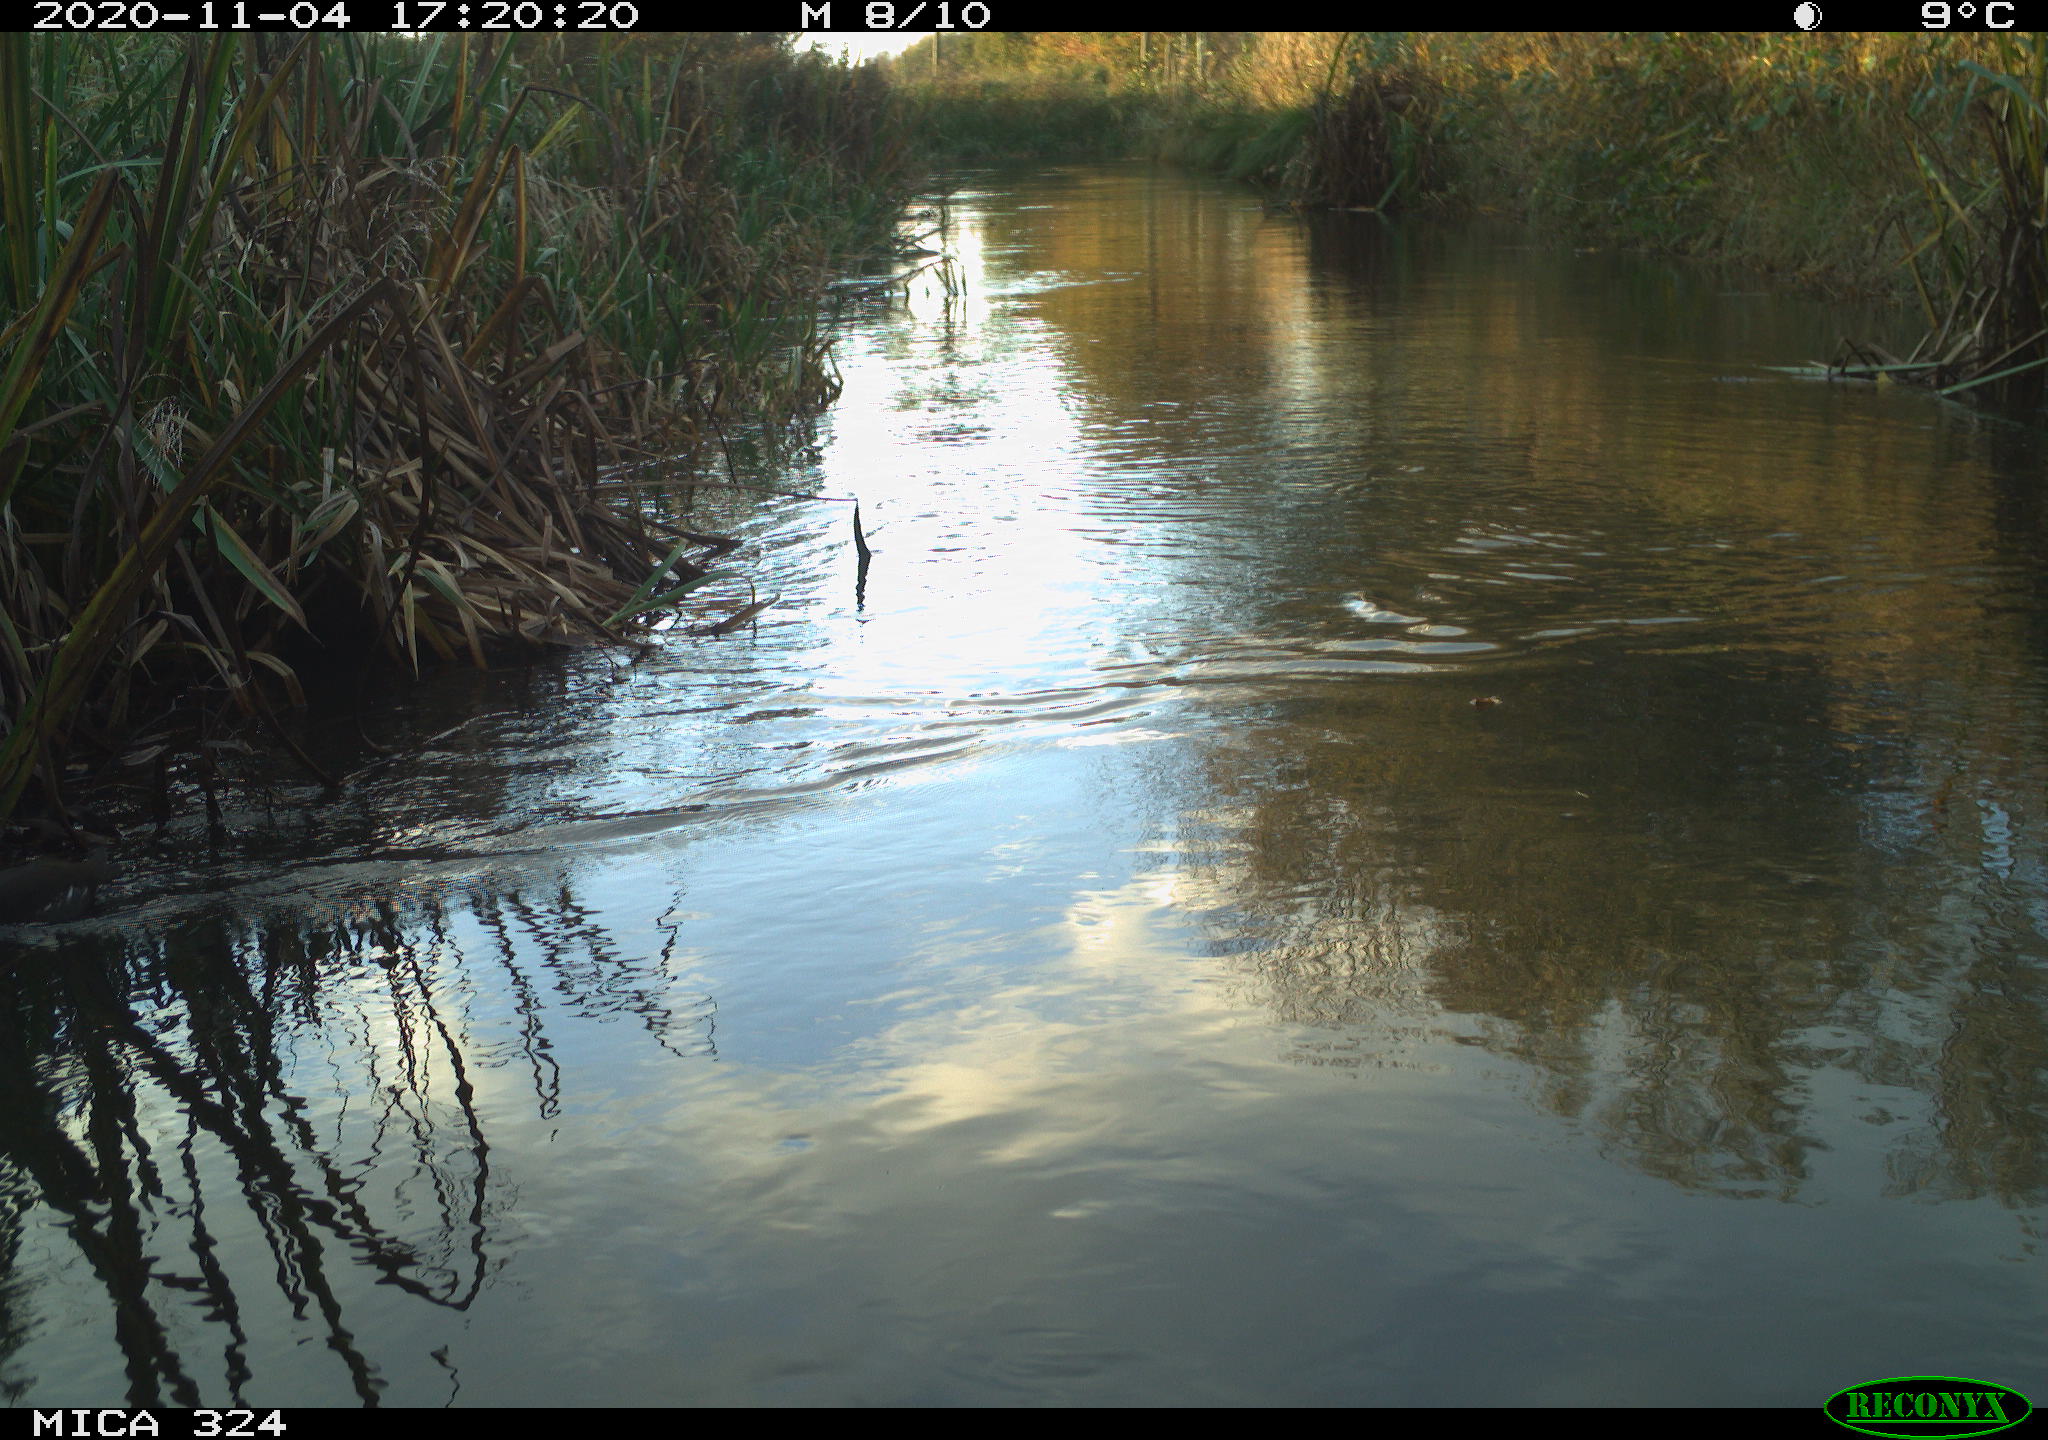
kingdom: Animalia
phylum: Chordata
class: Aves
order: Gruiformes
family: Rallidae
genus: Gallinula
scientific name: Gallinula chloropus
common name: Common moorhen
